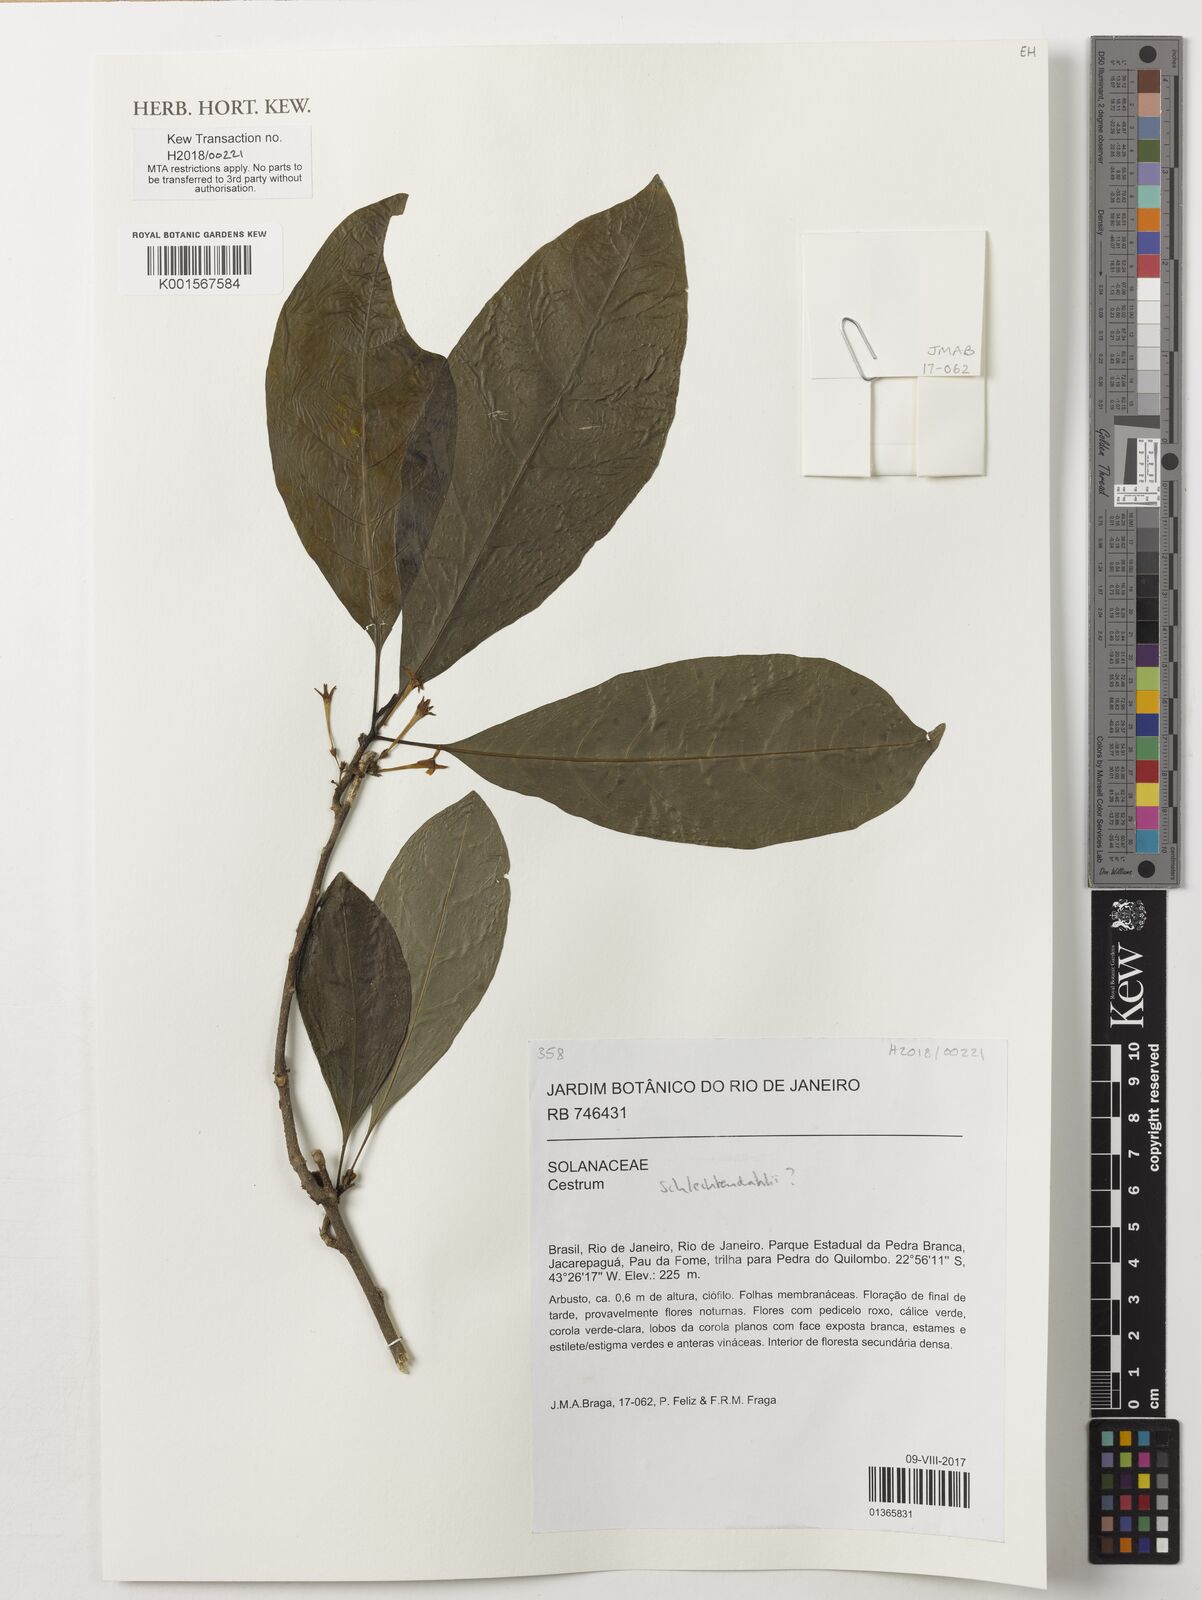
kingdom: Plantae
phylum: Tracheophyta
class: Magnoliopsida
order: Solanales
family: Solanaceae
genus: Cestrum
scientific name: Cestrum schlechtendalii
